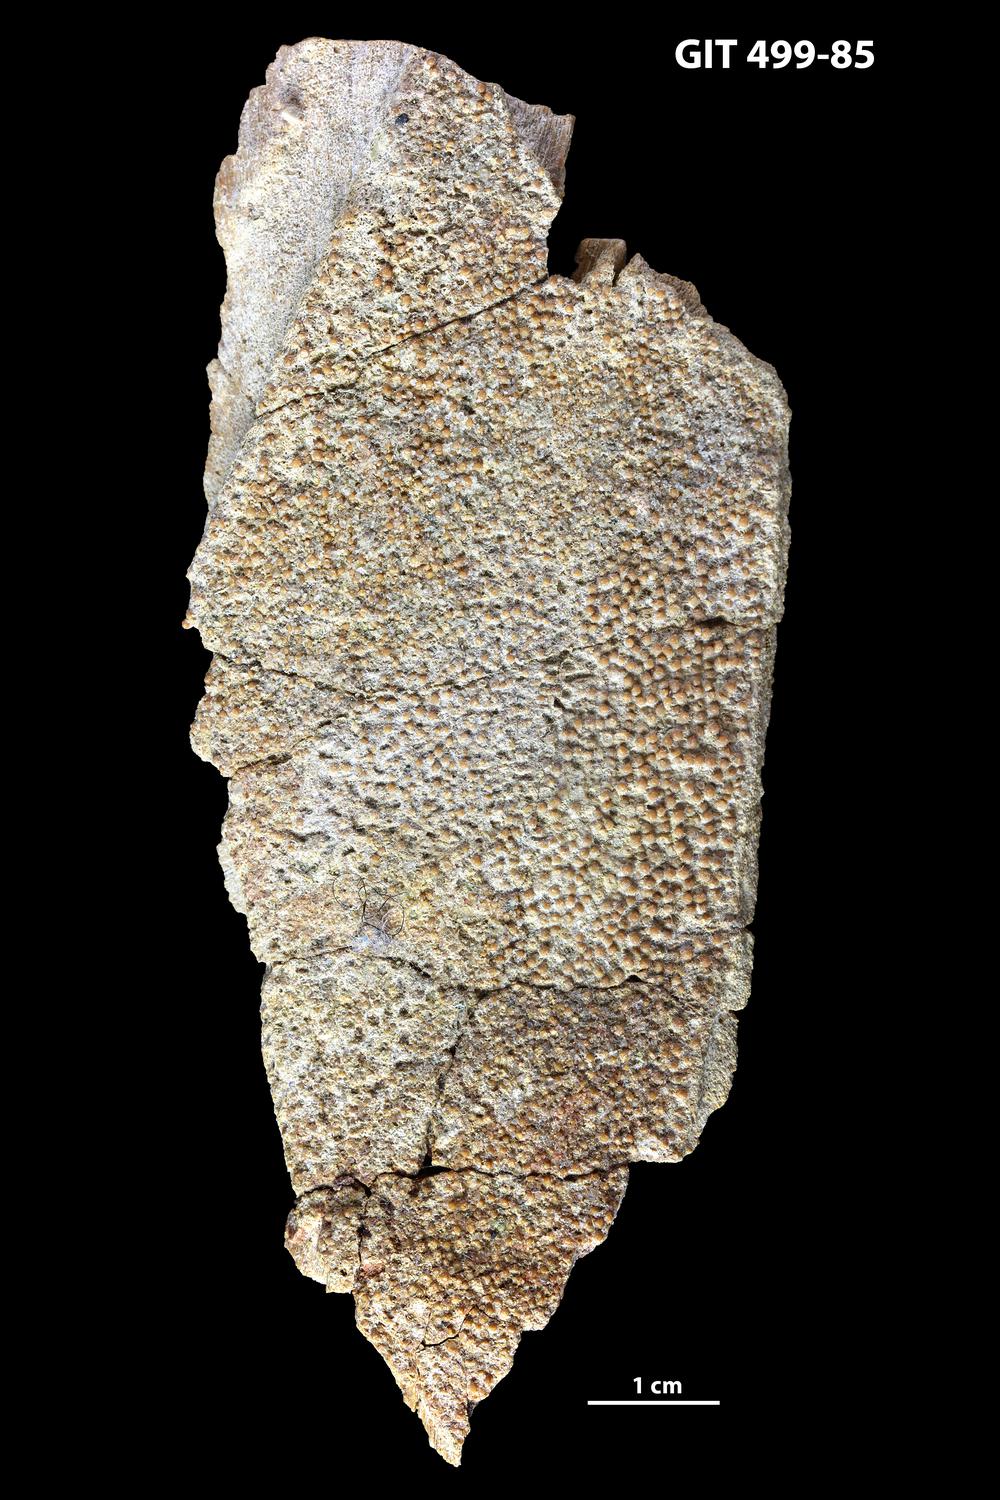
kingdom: Animalia
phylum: Chordata
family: Holoptychiidae
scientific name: Holoptychiidae
